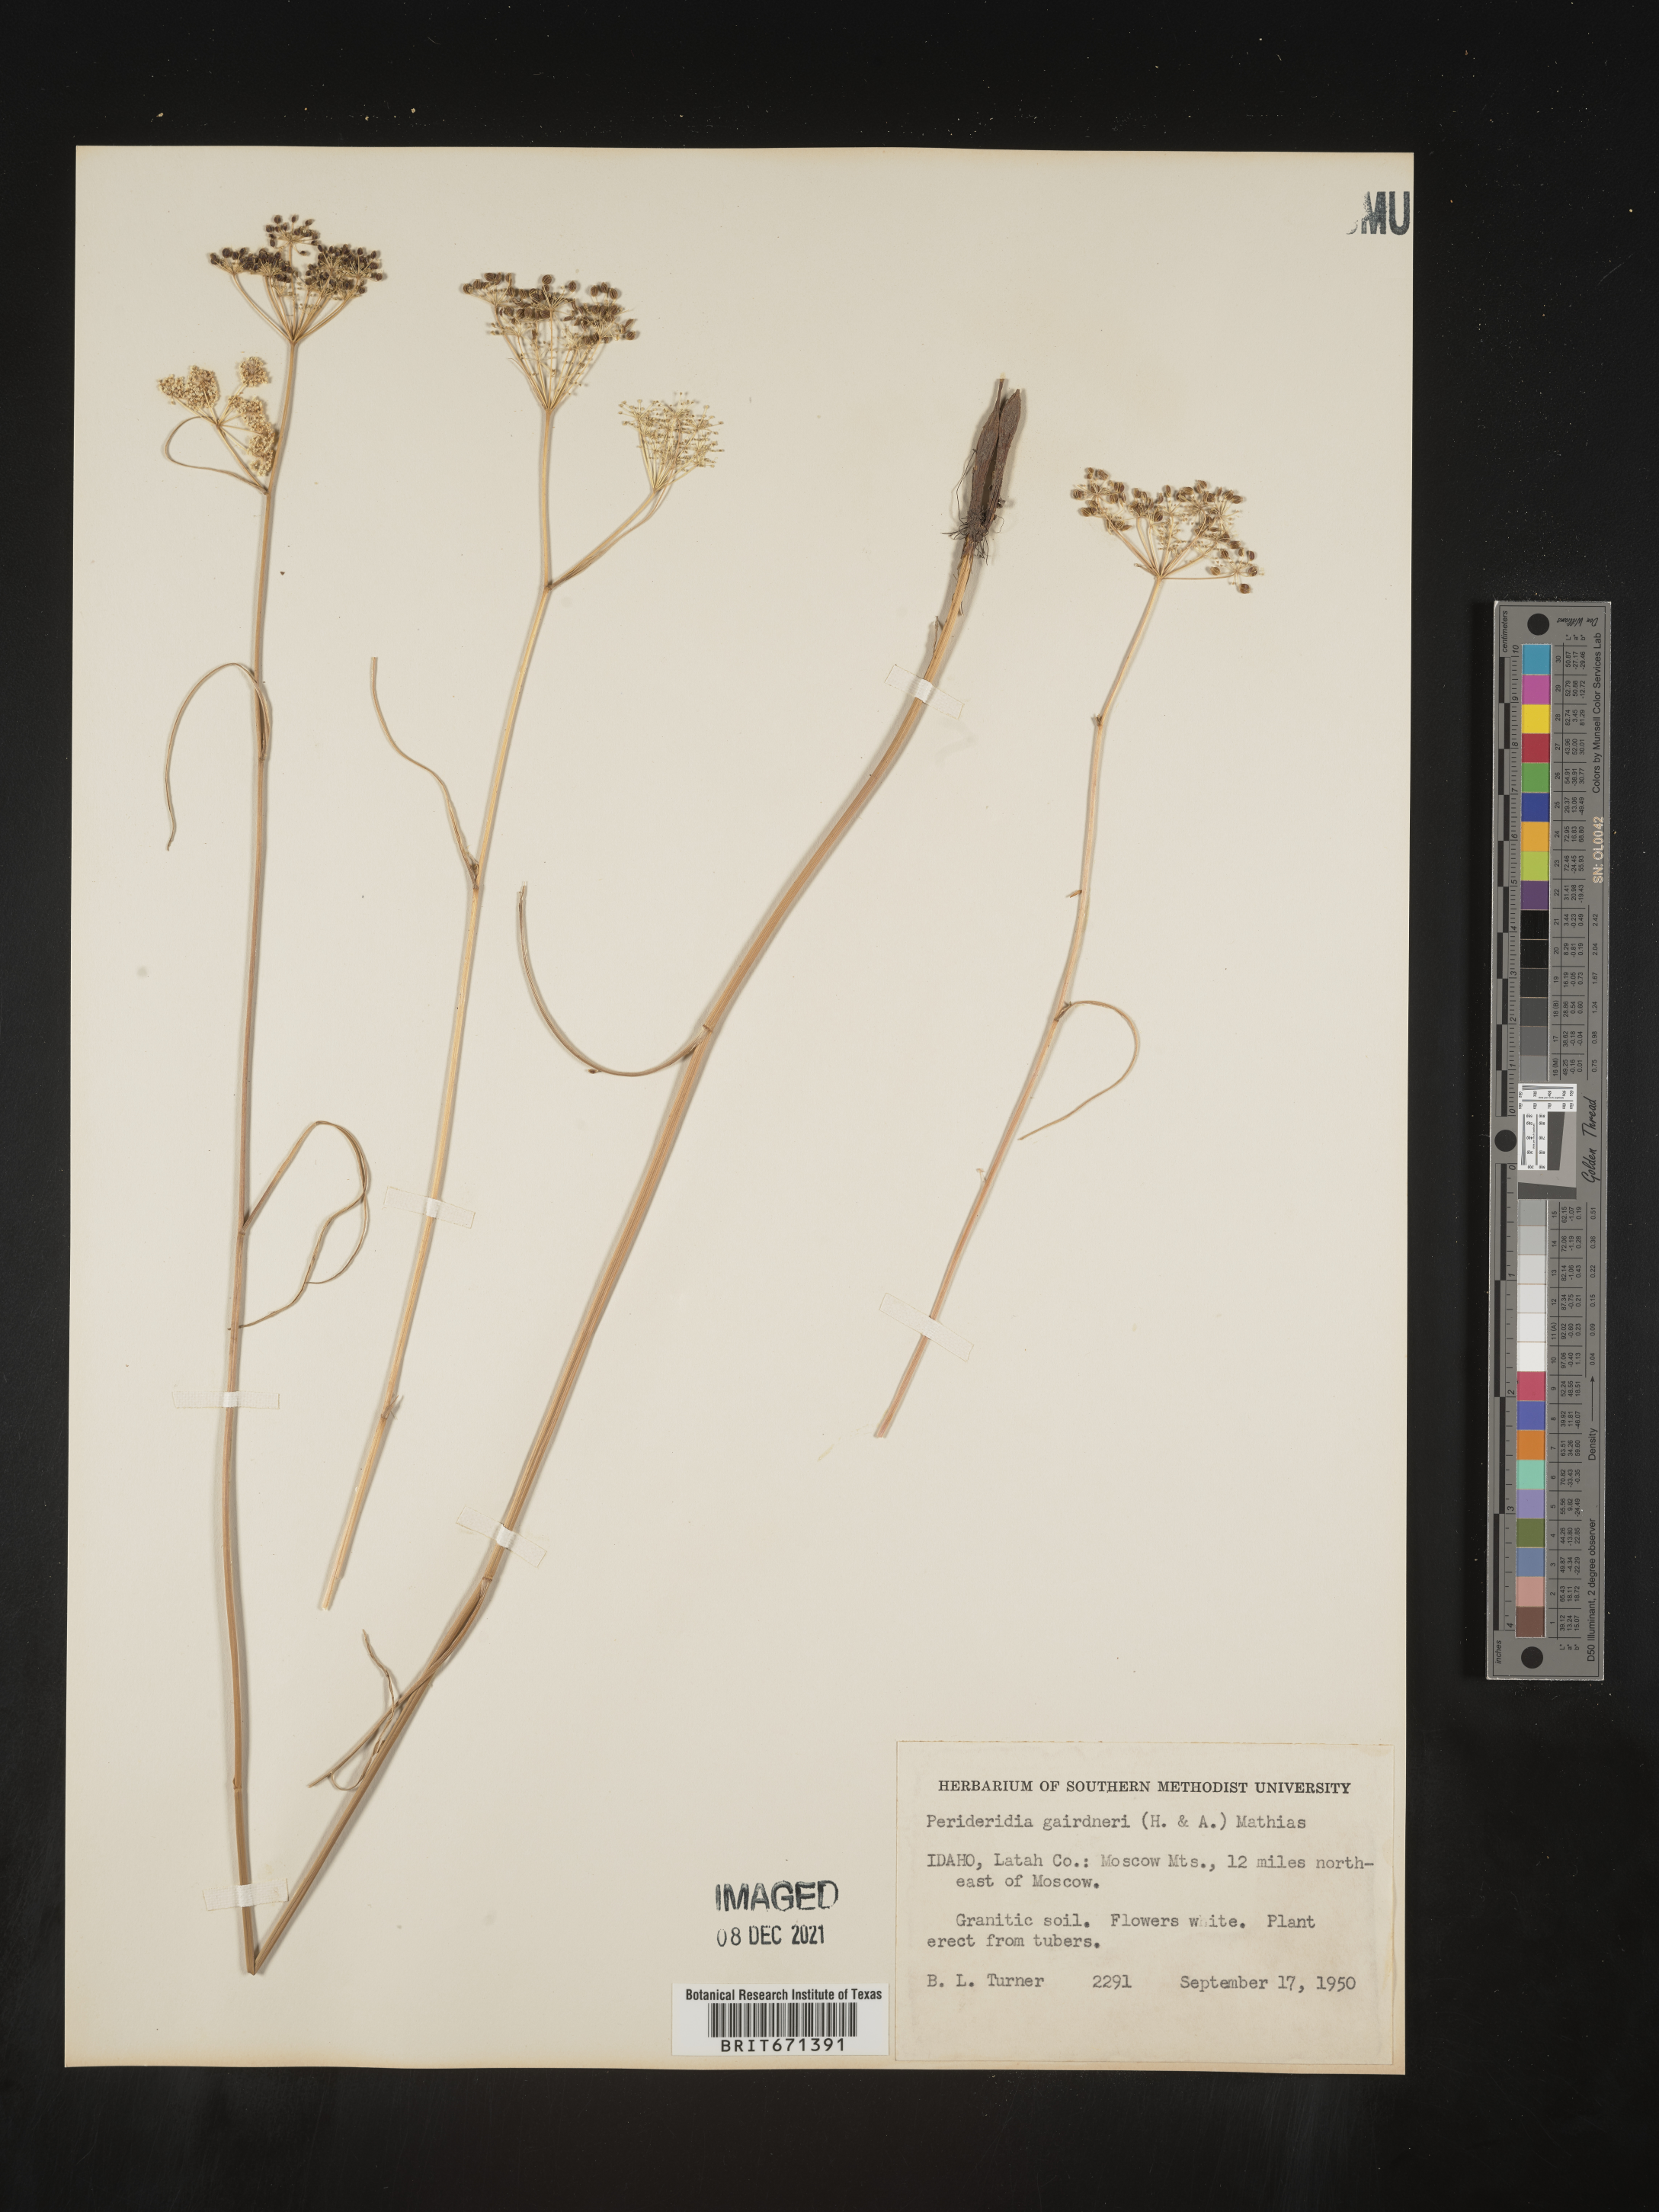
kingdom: Plantae
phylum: Tracheophyta
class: Magnoliopsida
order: Apiales
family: Apiaceae
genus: Perideridia
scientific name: Perideridia gairdneri
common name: False caraway
